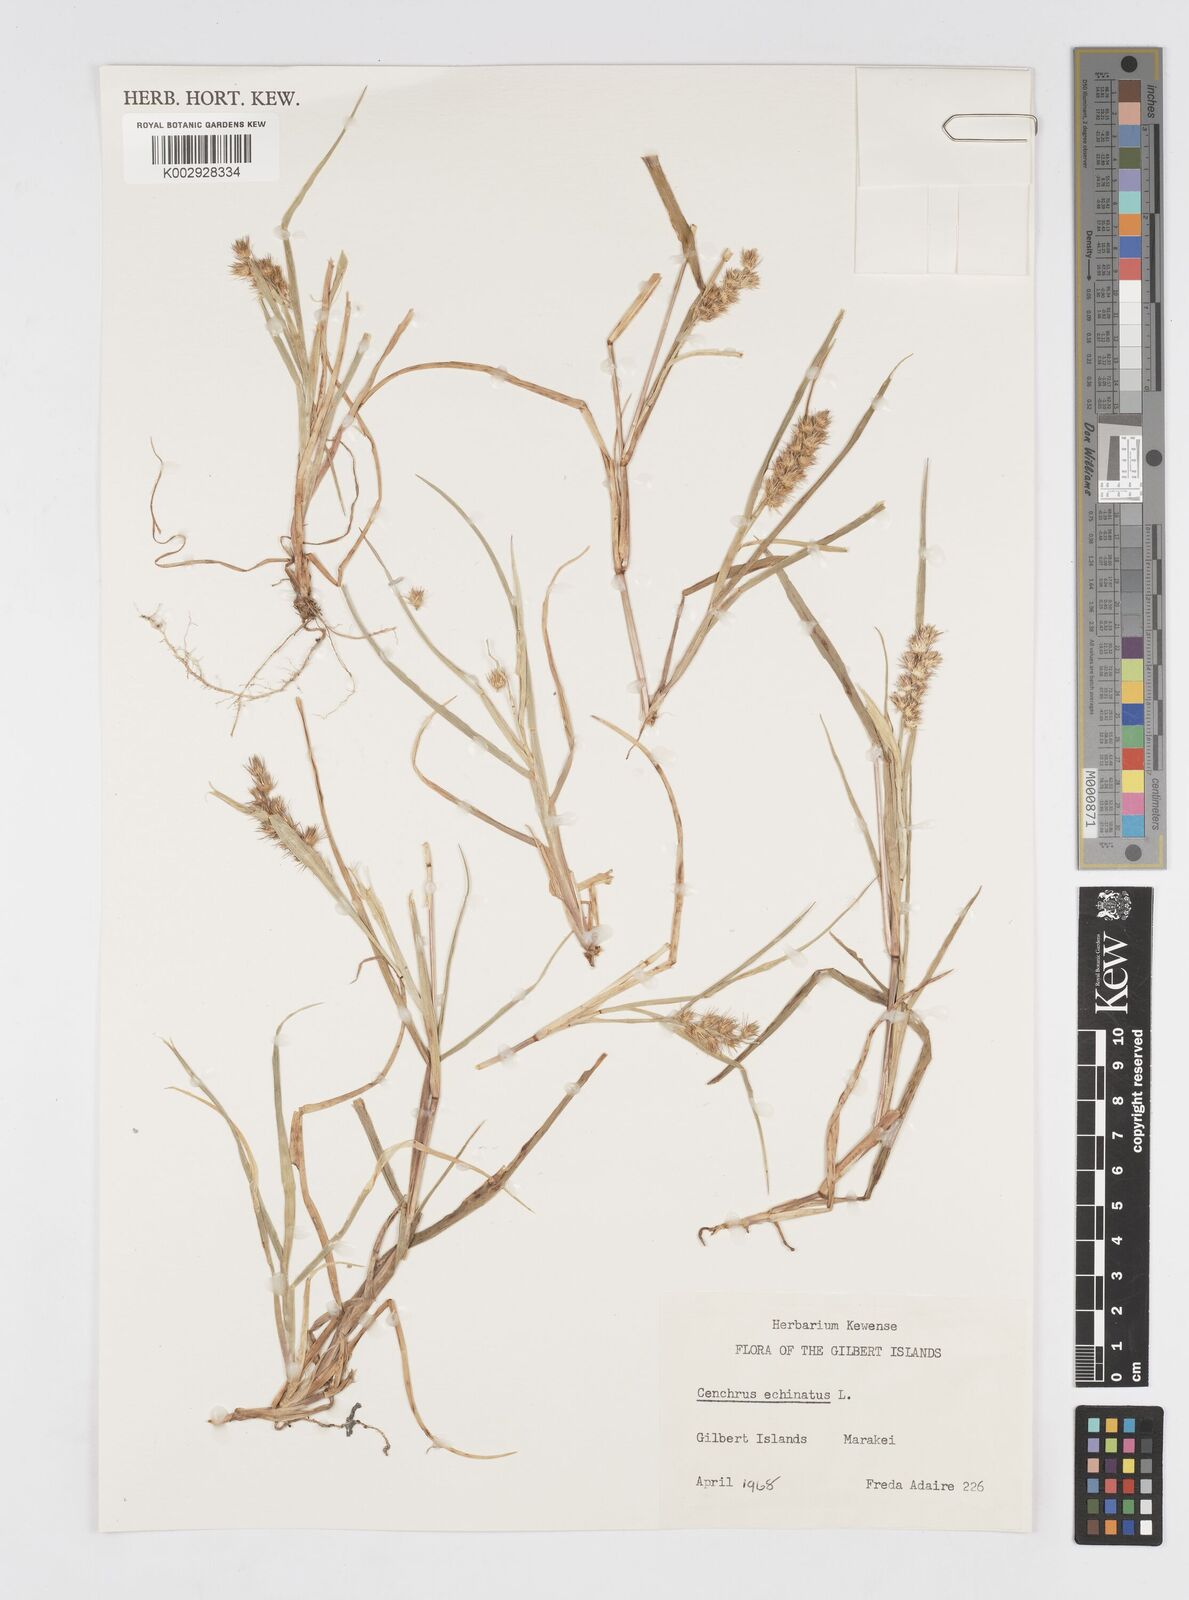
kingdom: Plantae
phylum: Tracheophyta
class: Liliopsida
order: Poales
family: Poaceae
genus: Cenchrus
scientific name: Cenchrus echinatus
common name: Southern sandbur
